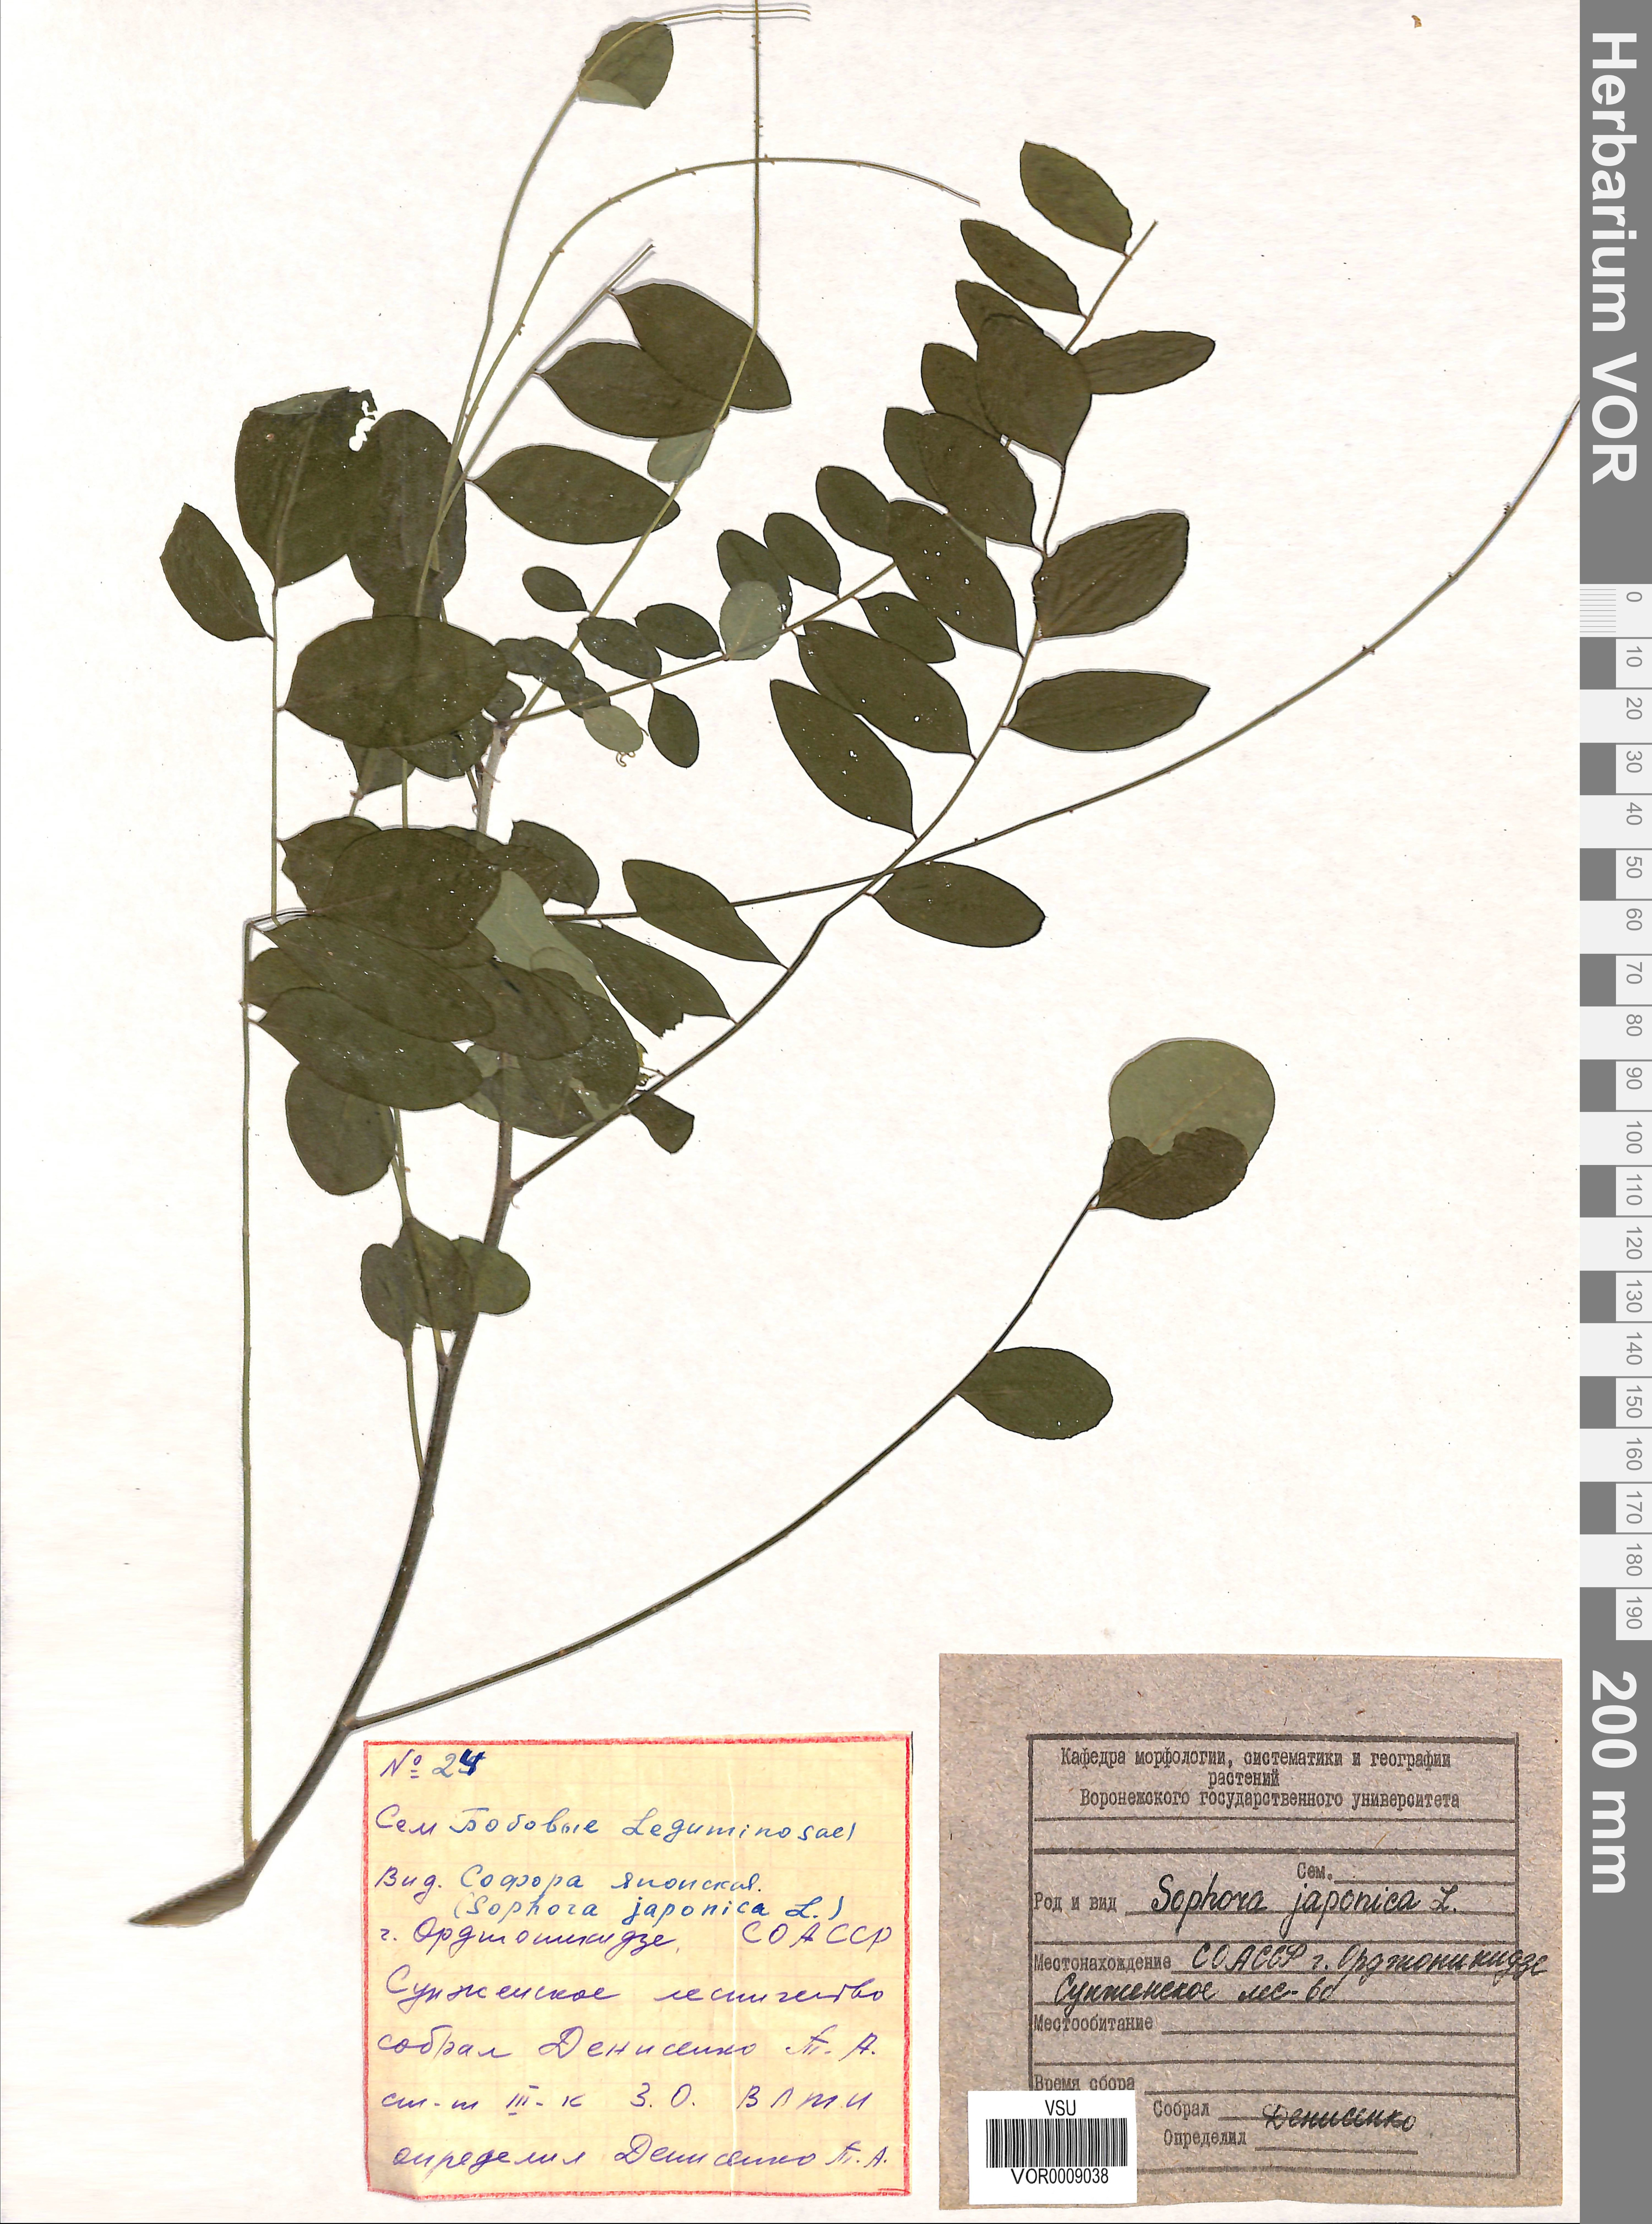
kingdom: Plantae
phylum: Tracheophyta
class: Magnoliopsida
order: Fabales
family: Fabaceae
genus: Styphnolobium
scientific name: Styphnolobium japonicum
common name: Chinese scholartree
